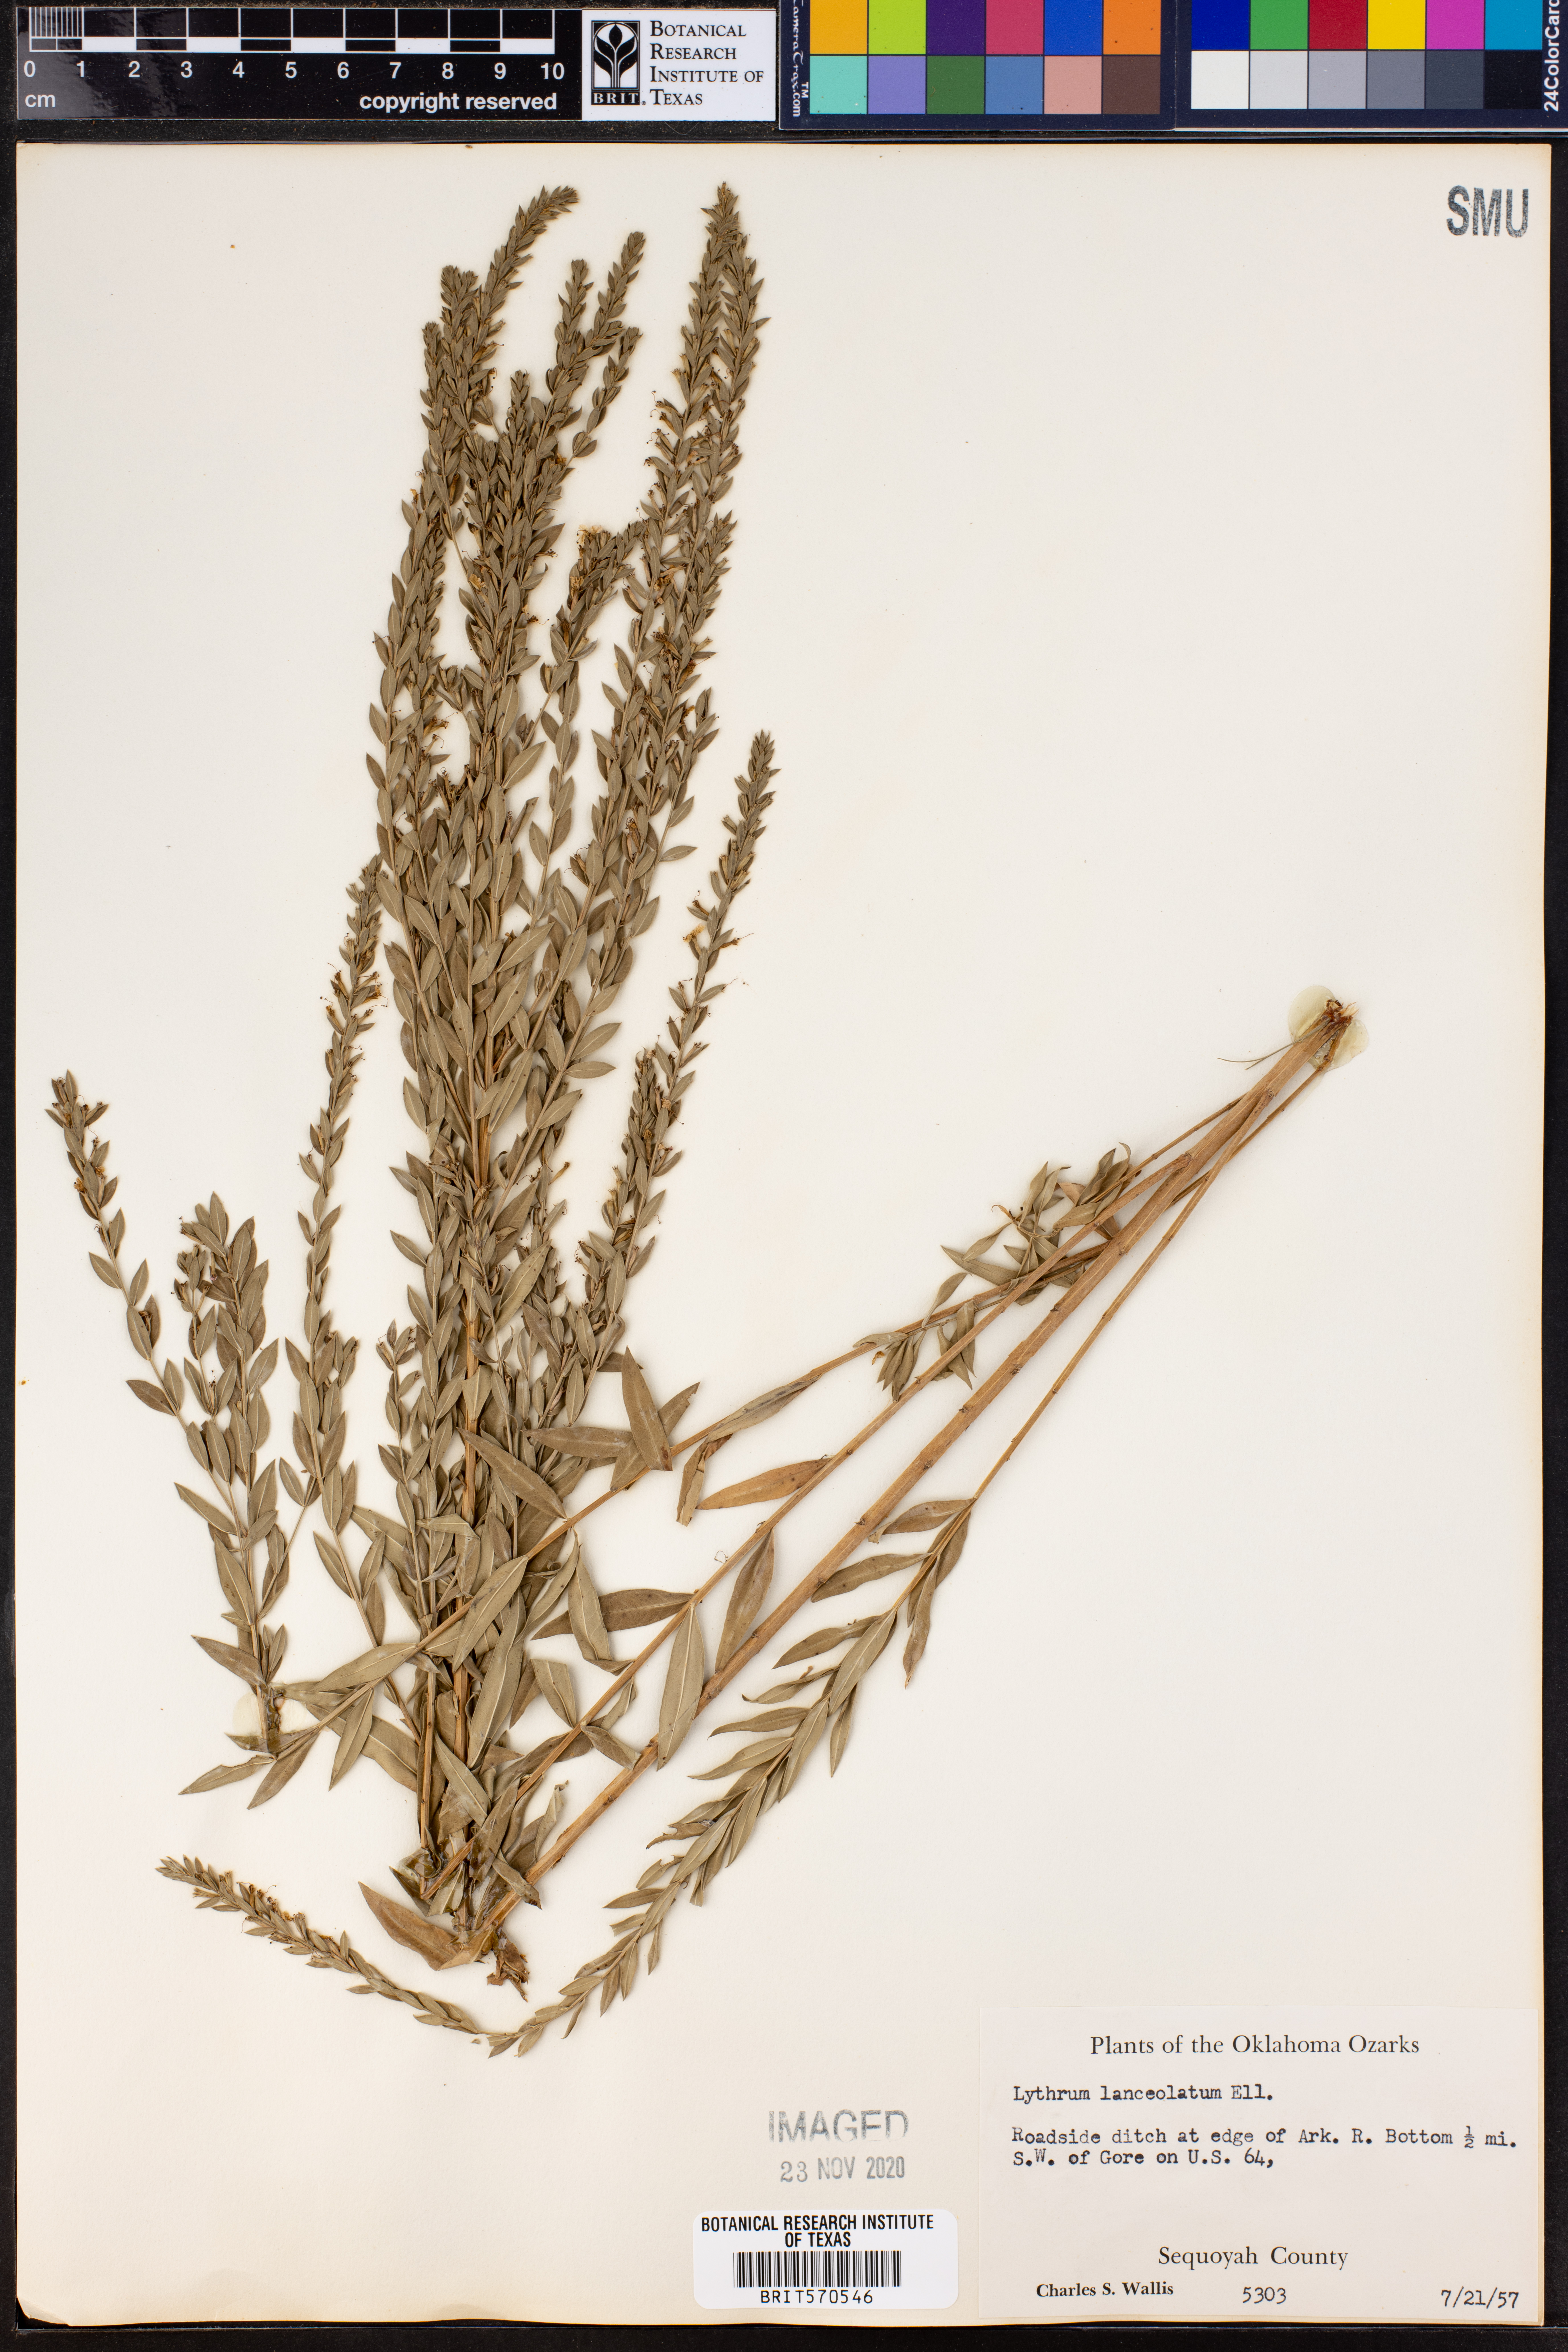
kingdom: Plantae
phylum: Tracheophyta
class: Magnoliopsida
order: Myrtales
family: Lythraceae
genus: Lythrum
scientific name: Lythrum alatum
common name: Winged loosestrife
